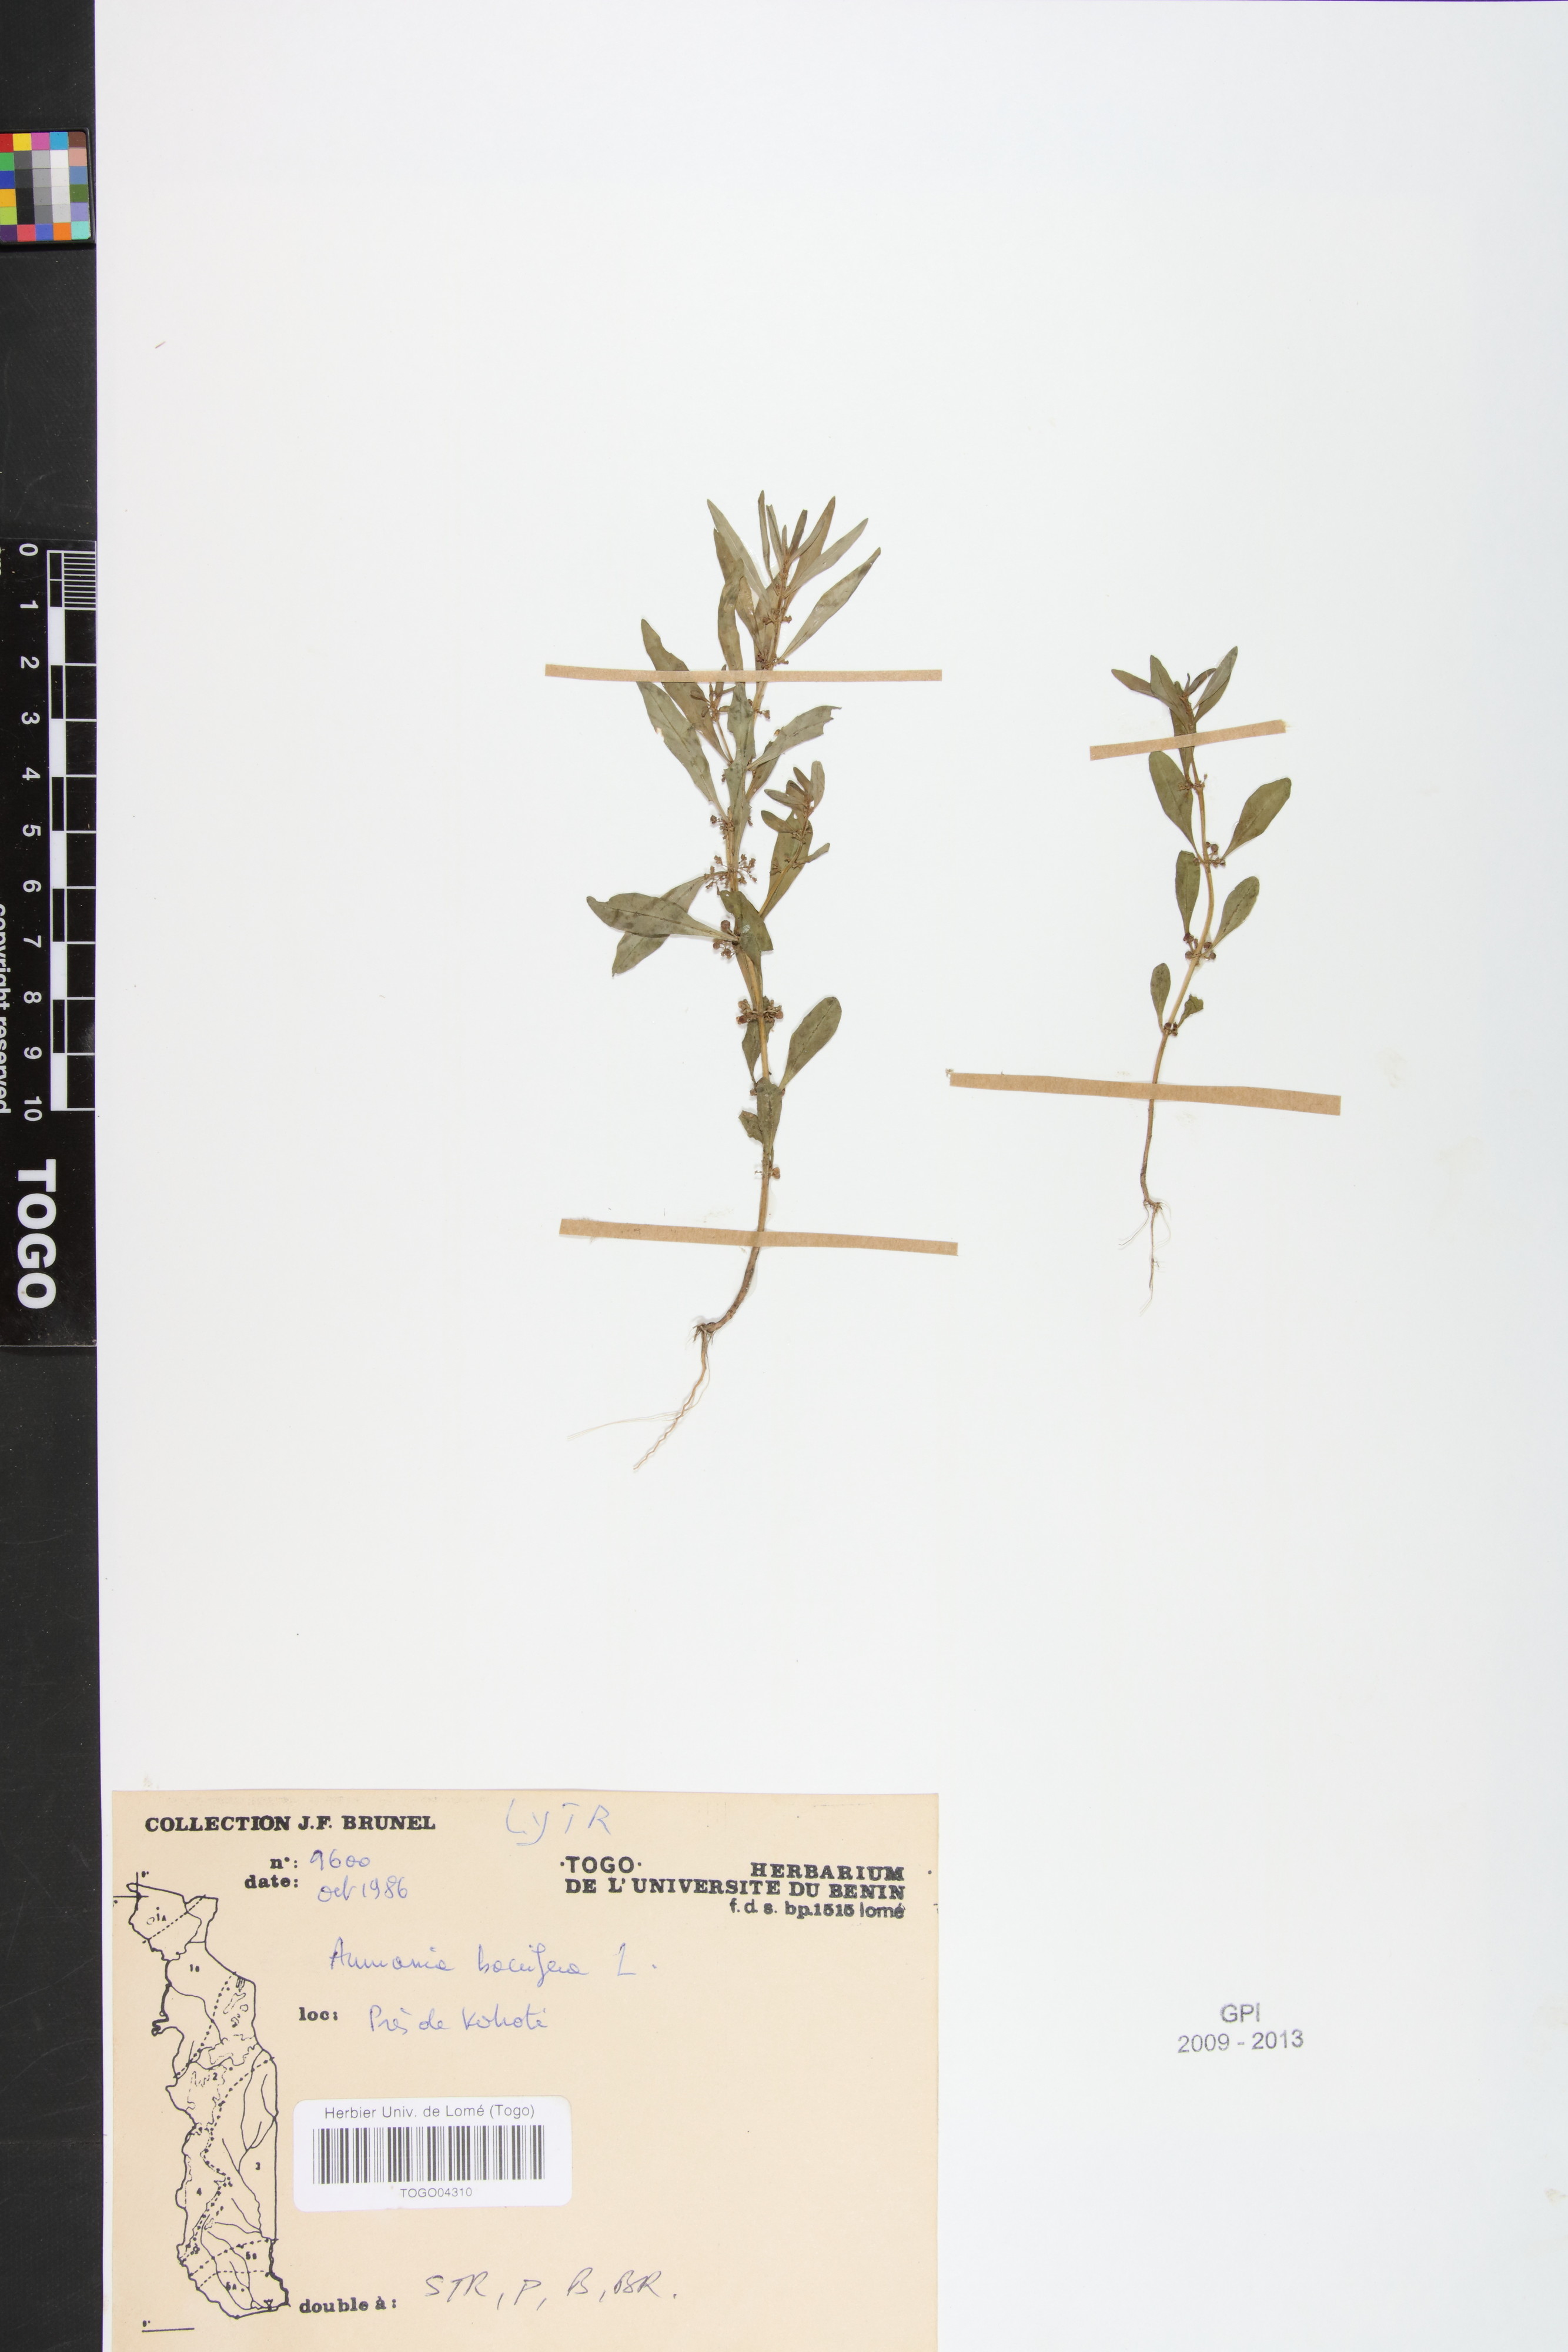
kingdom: Plantae
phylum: Tracheophyta
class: Magnoliopsida
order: Myrtales
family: Lythraceae
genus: Ammannia
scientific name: Ammannia baccifera
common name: Blistering ammania
